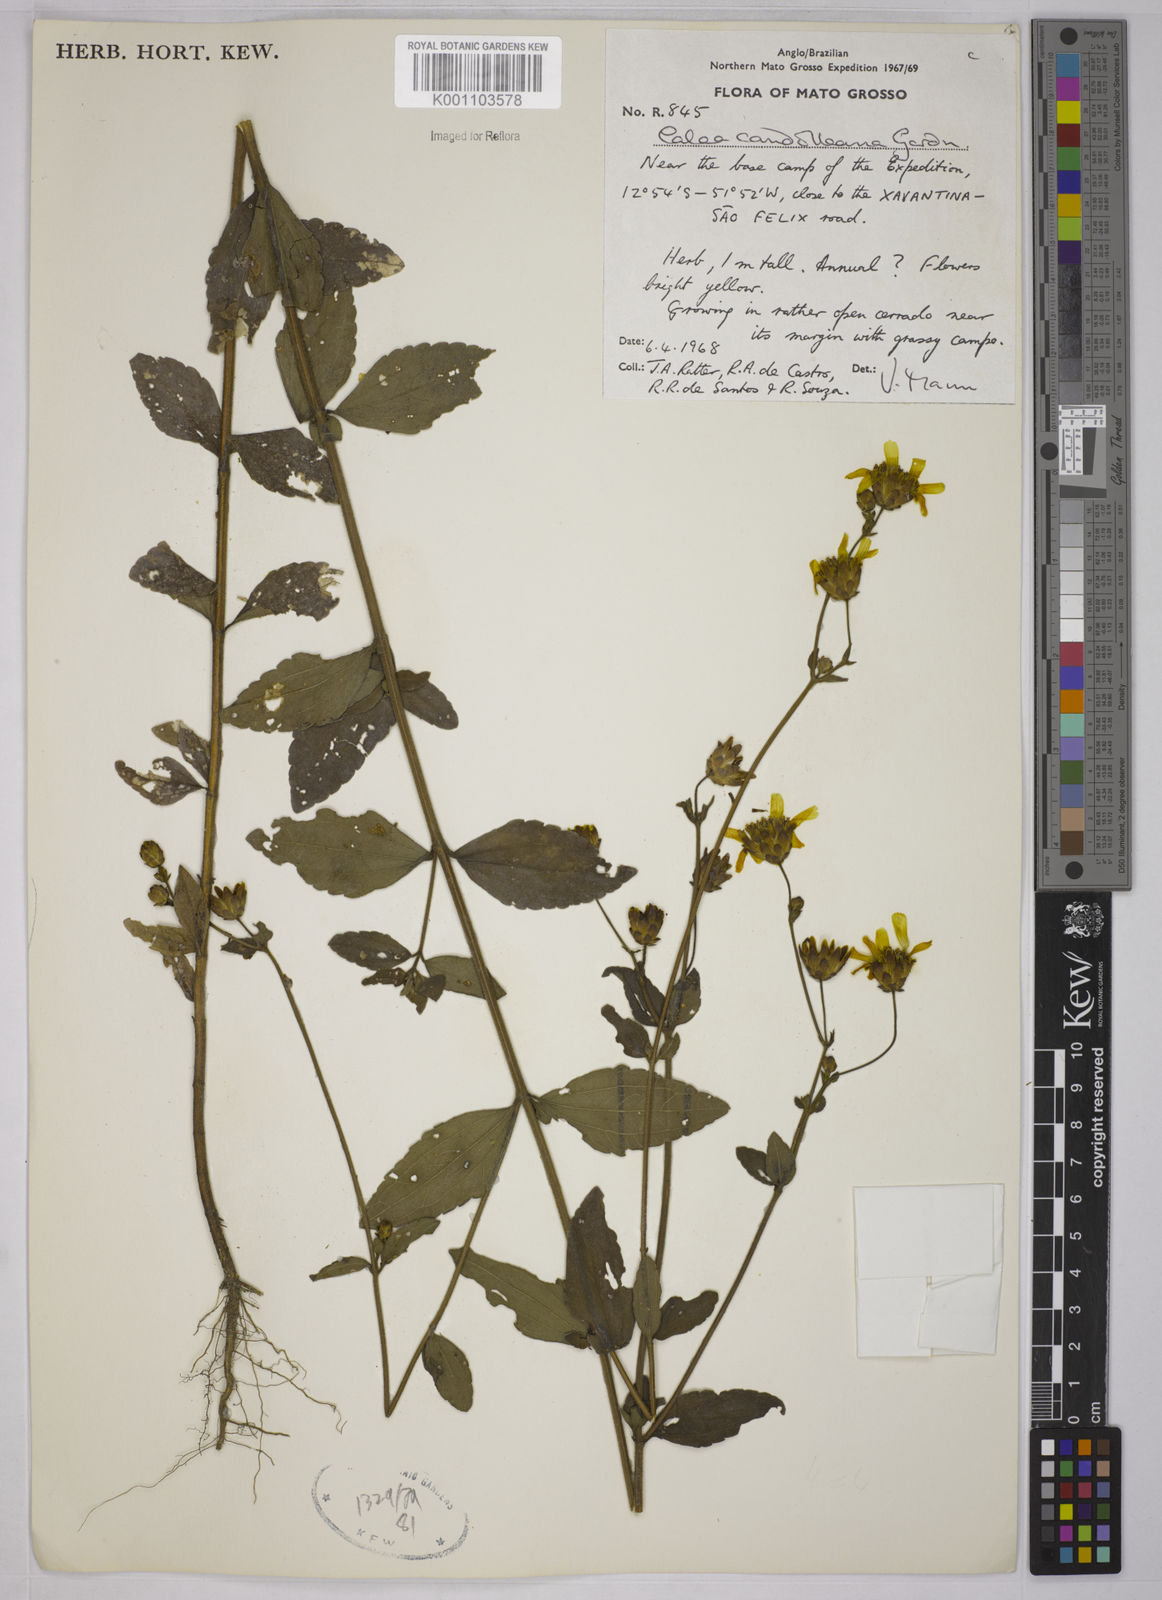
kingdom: Plantae
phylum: Tracheophyta
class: Magnoliopsida
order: Asterales
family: Asteraceae
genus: Calea
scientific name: Calea candolleana
